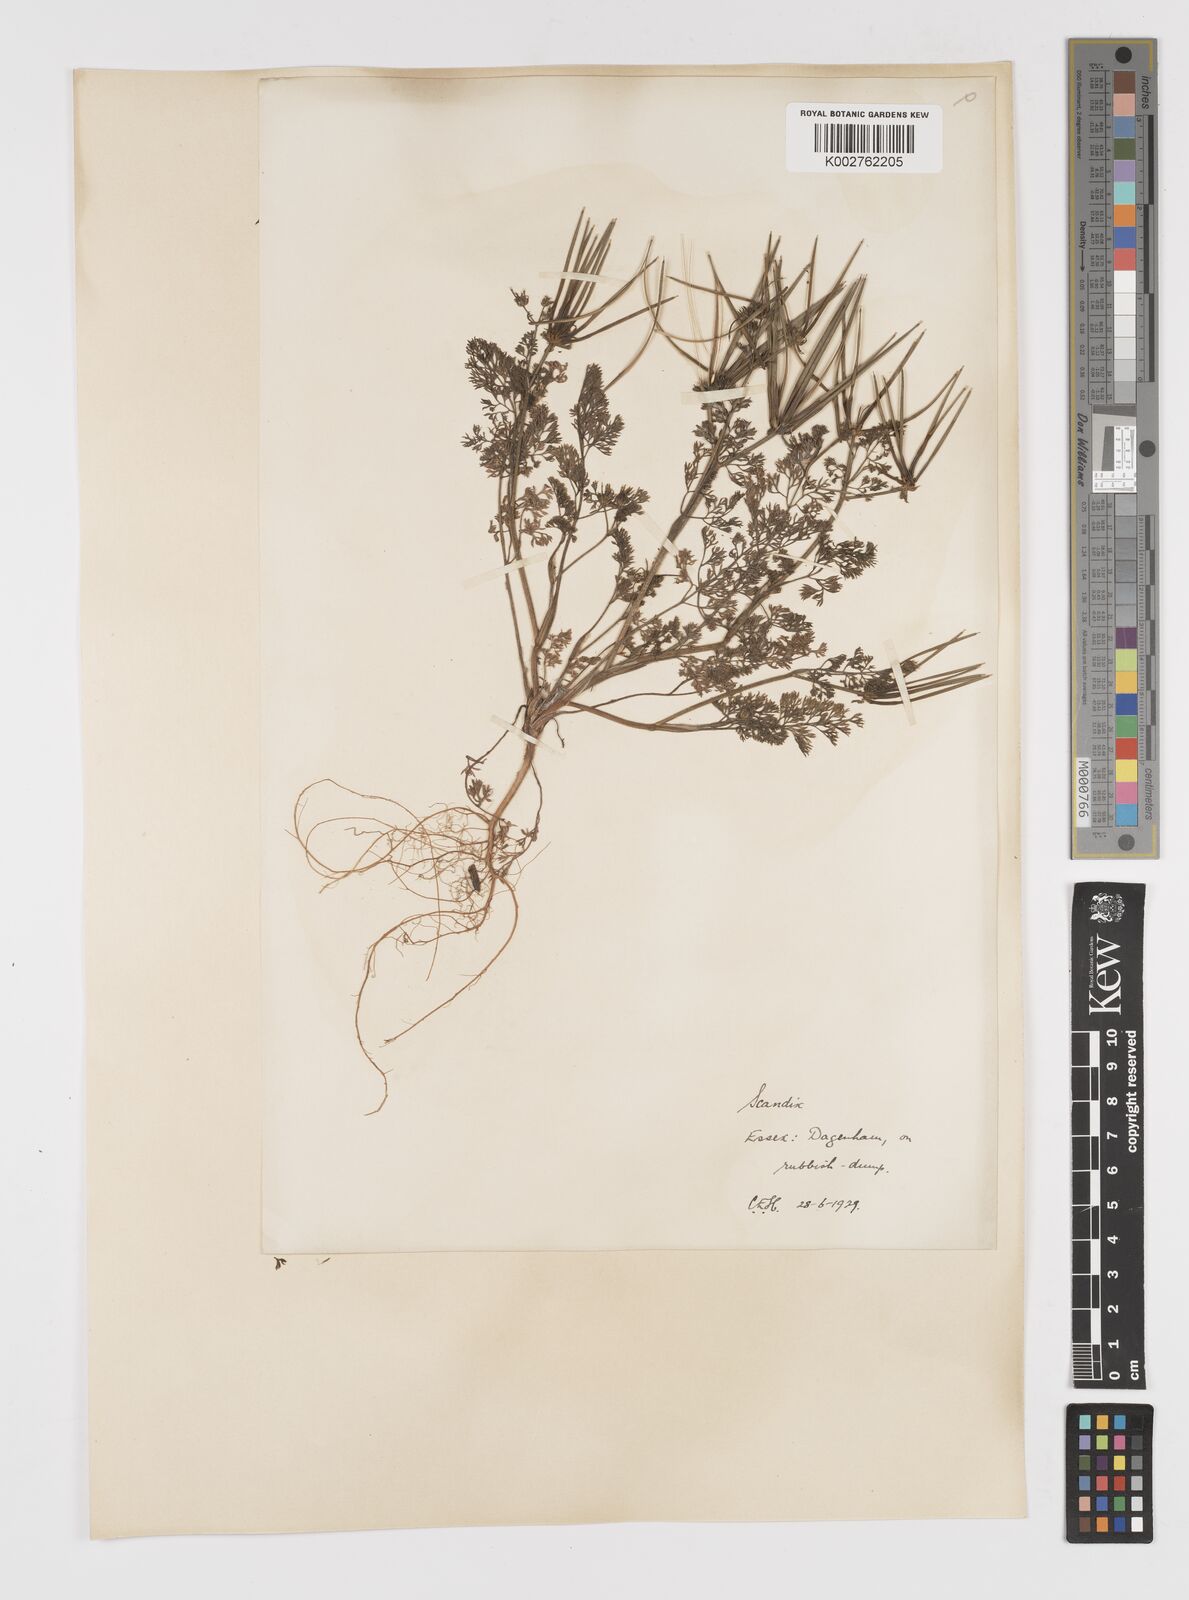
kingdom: Plantae
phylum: Tracheophyta
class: Magnoliopsida
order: Apiales
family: Apiaceae
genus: Scandix
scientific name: Scandix pecten-veneris
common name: Shepherd's-needle
